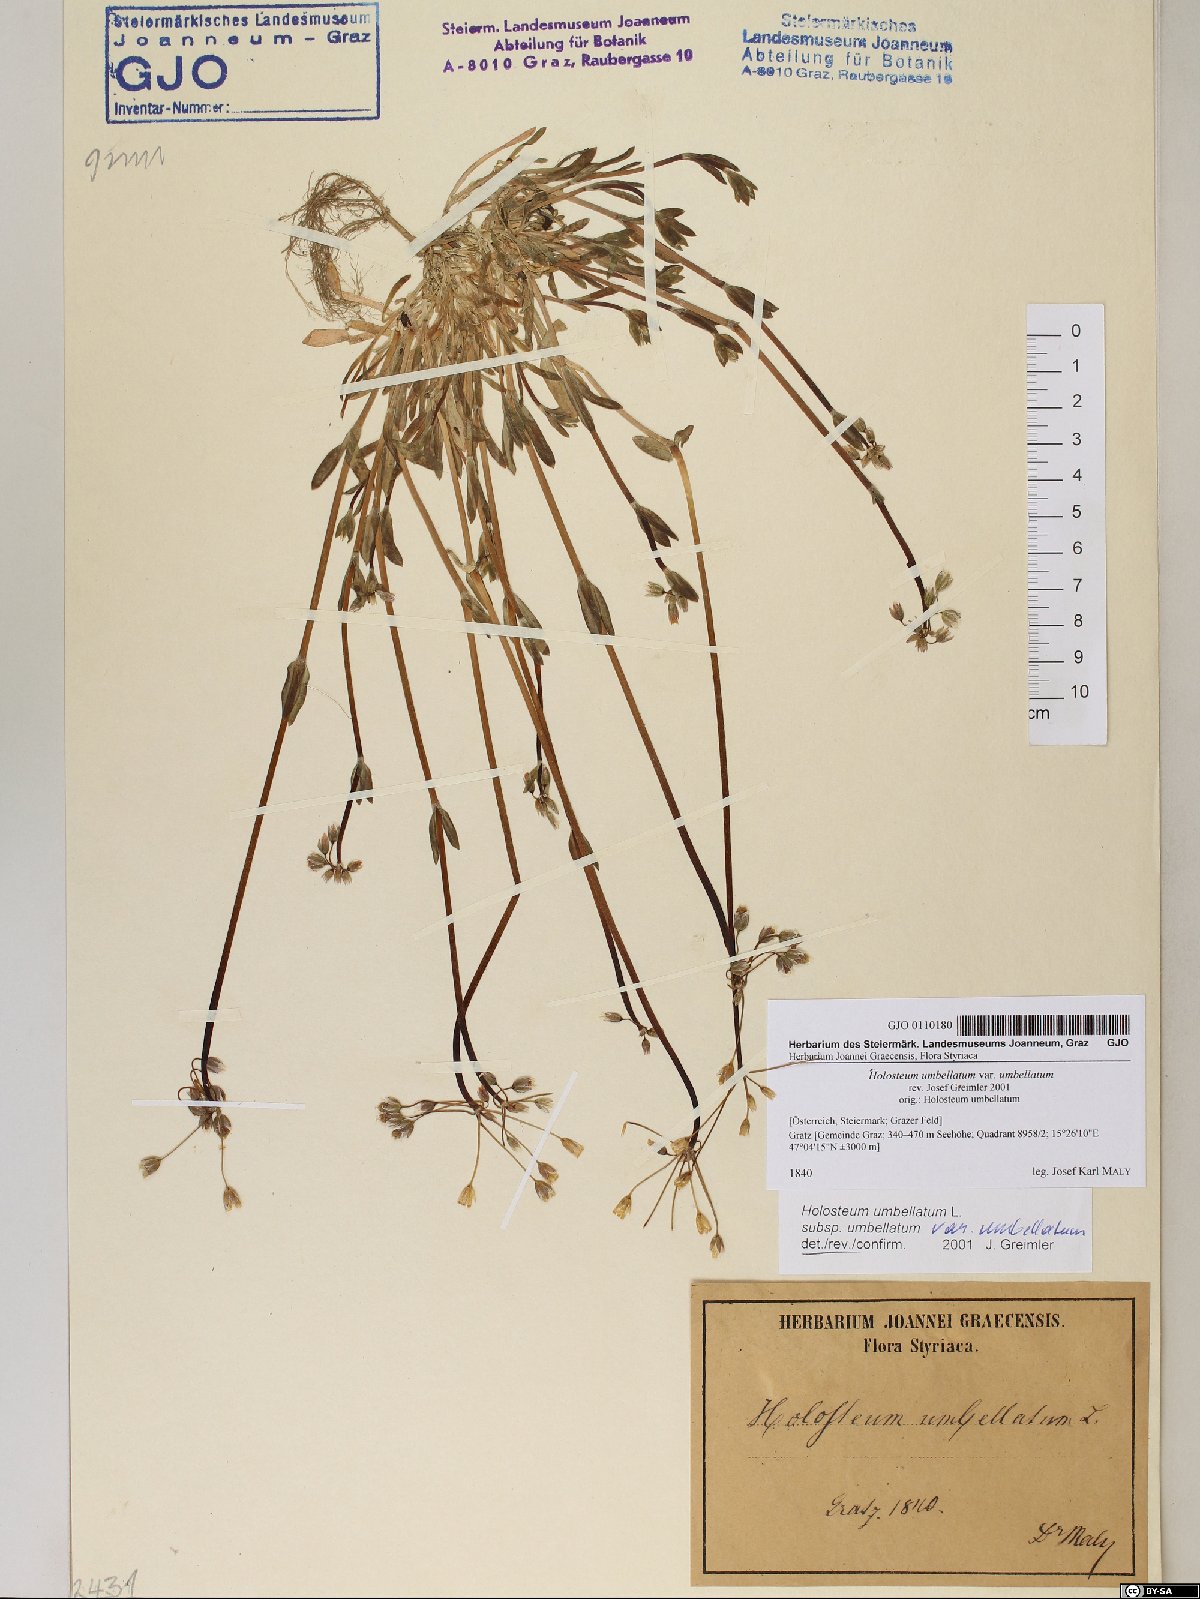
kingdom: Plantae
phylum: Tracheophyta
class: Magnoliopsida
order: Caryophyllales
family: Caryophyllaceae
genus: Holosteum
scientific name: Holosteum umbellatum
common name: Jagged chickweed
